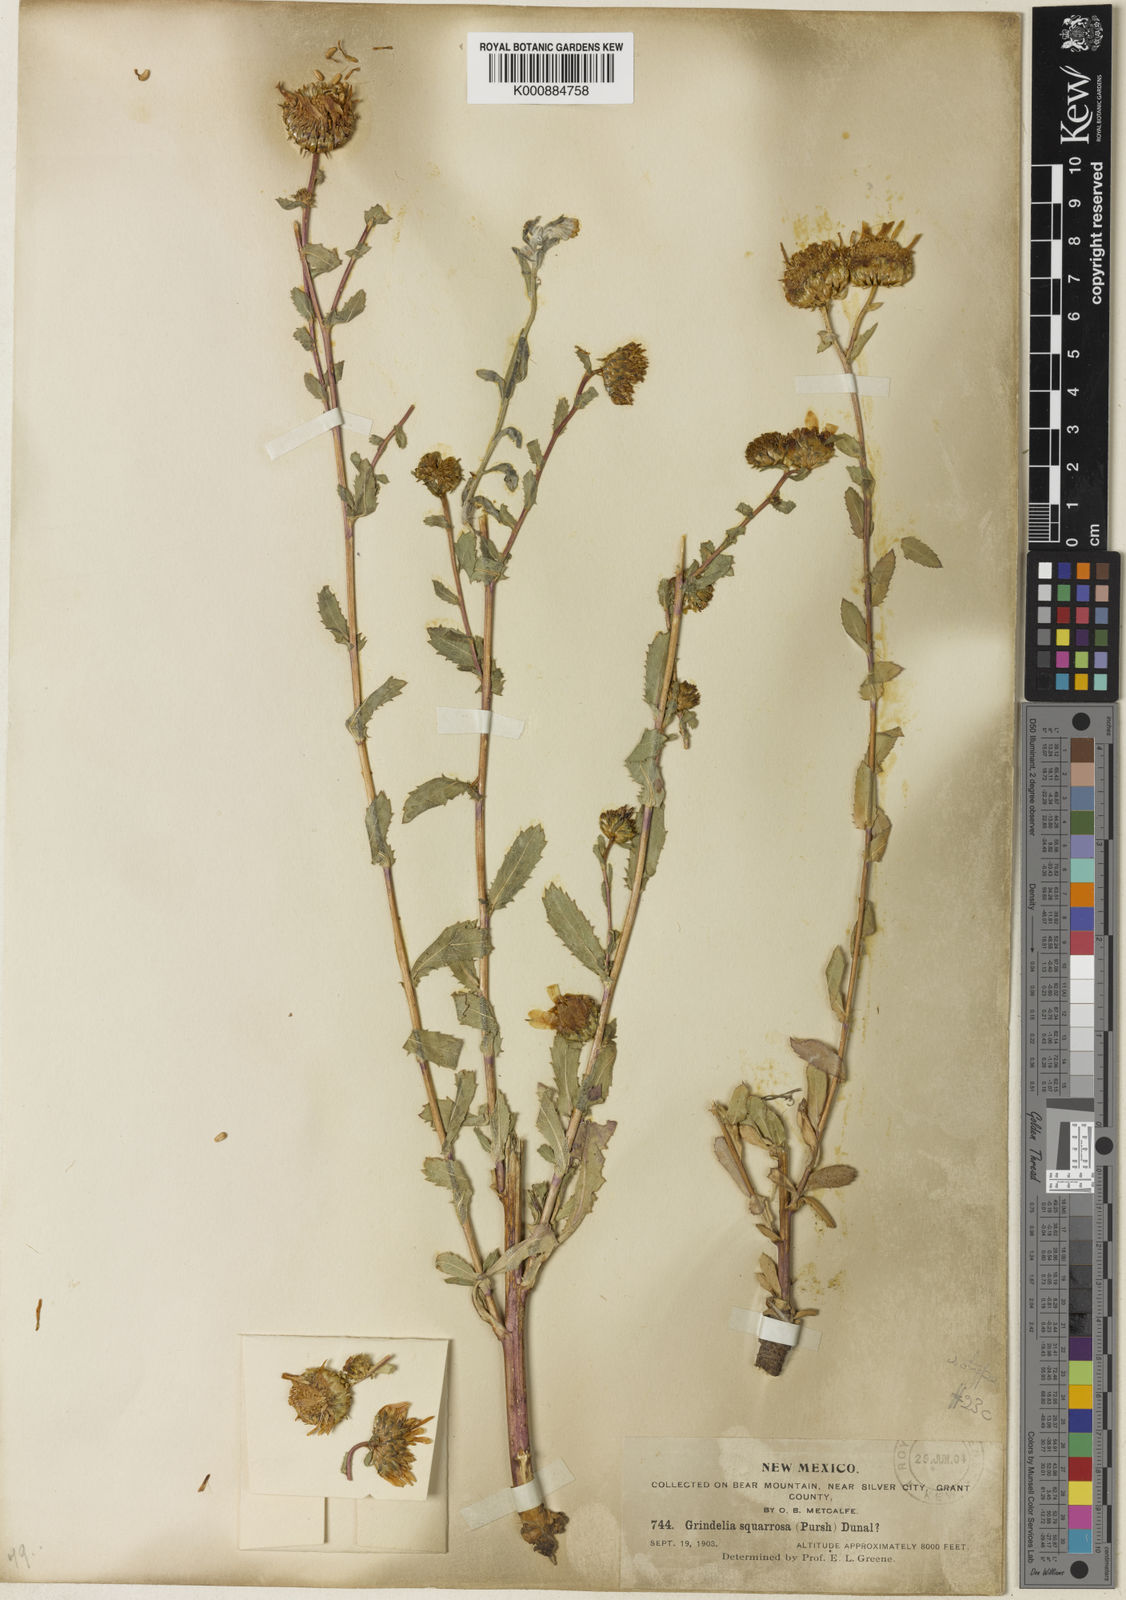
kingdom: Plantae
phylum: Tracheophyta
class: Magnoliopsida
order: Asterales
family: Asteraceae
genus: Grindelia
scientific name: Grindelia
